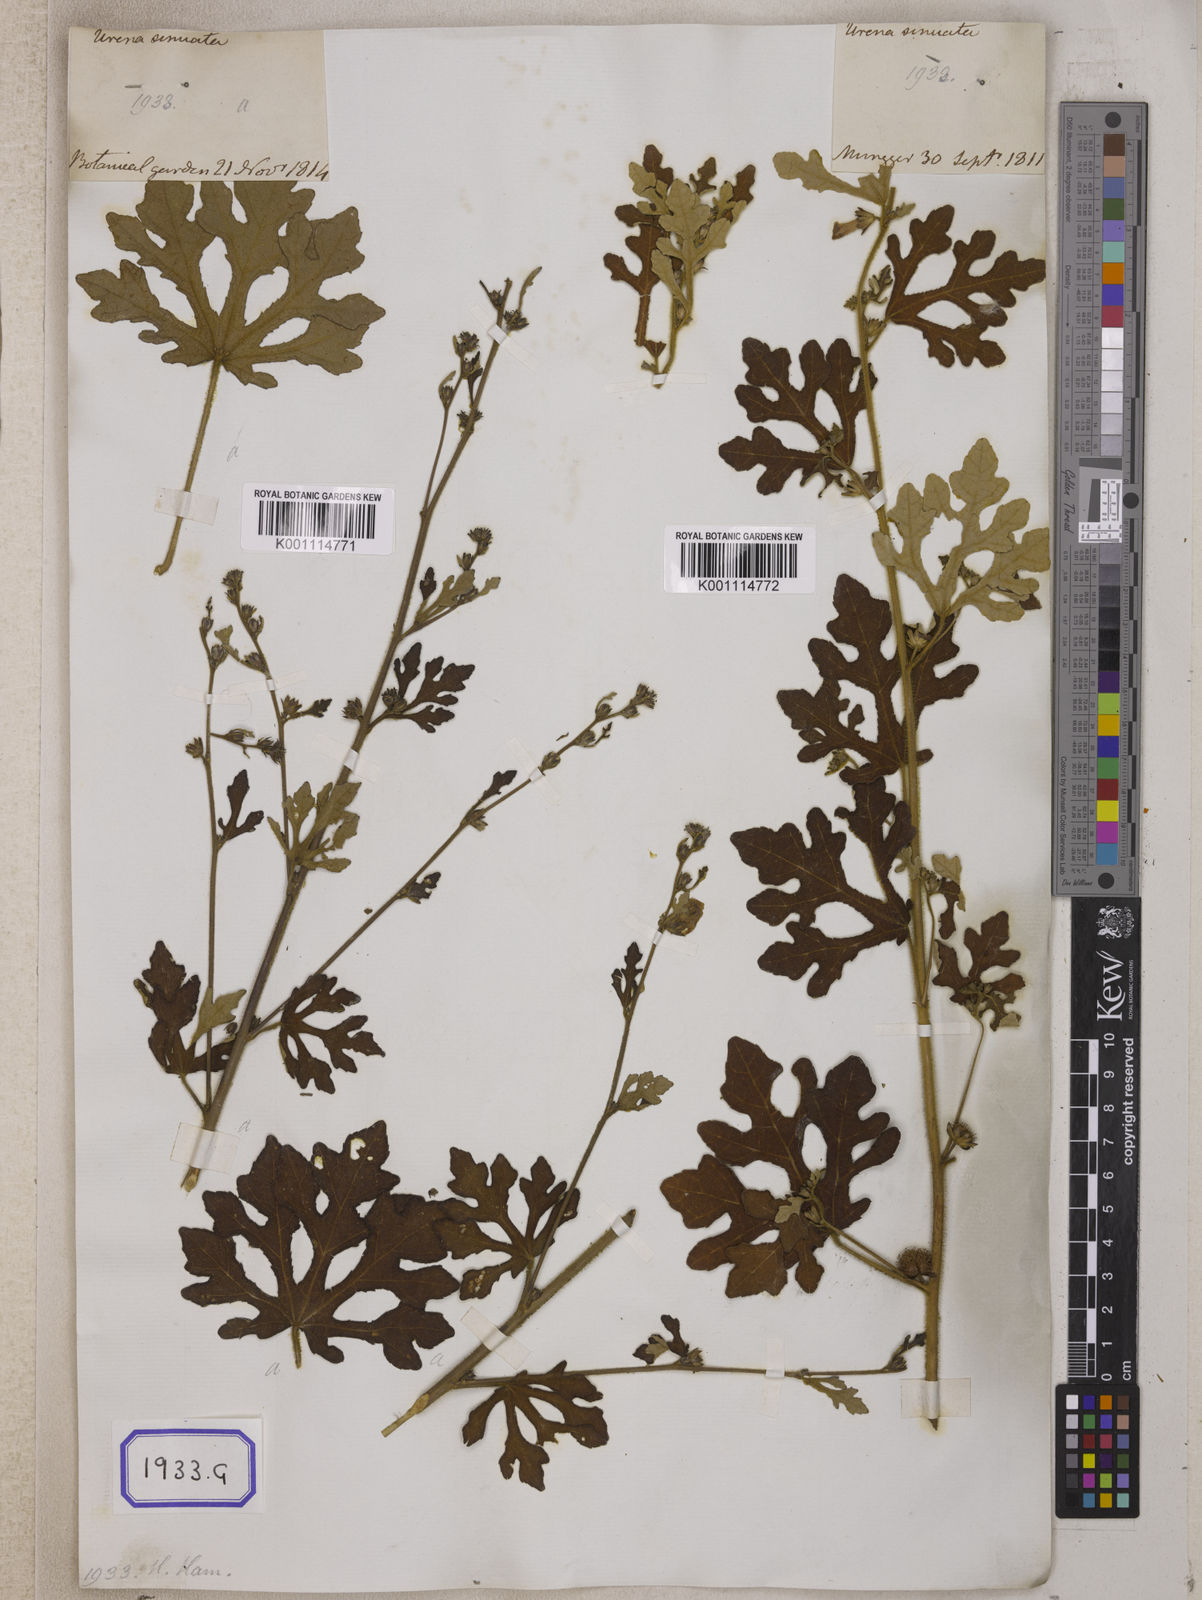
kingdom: Plantae
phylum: Tracheophyta
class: Magnoliopsida
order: Malvales
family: Malvaceae
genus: Urena
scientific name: Urena procumbens
